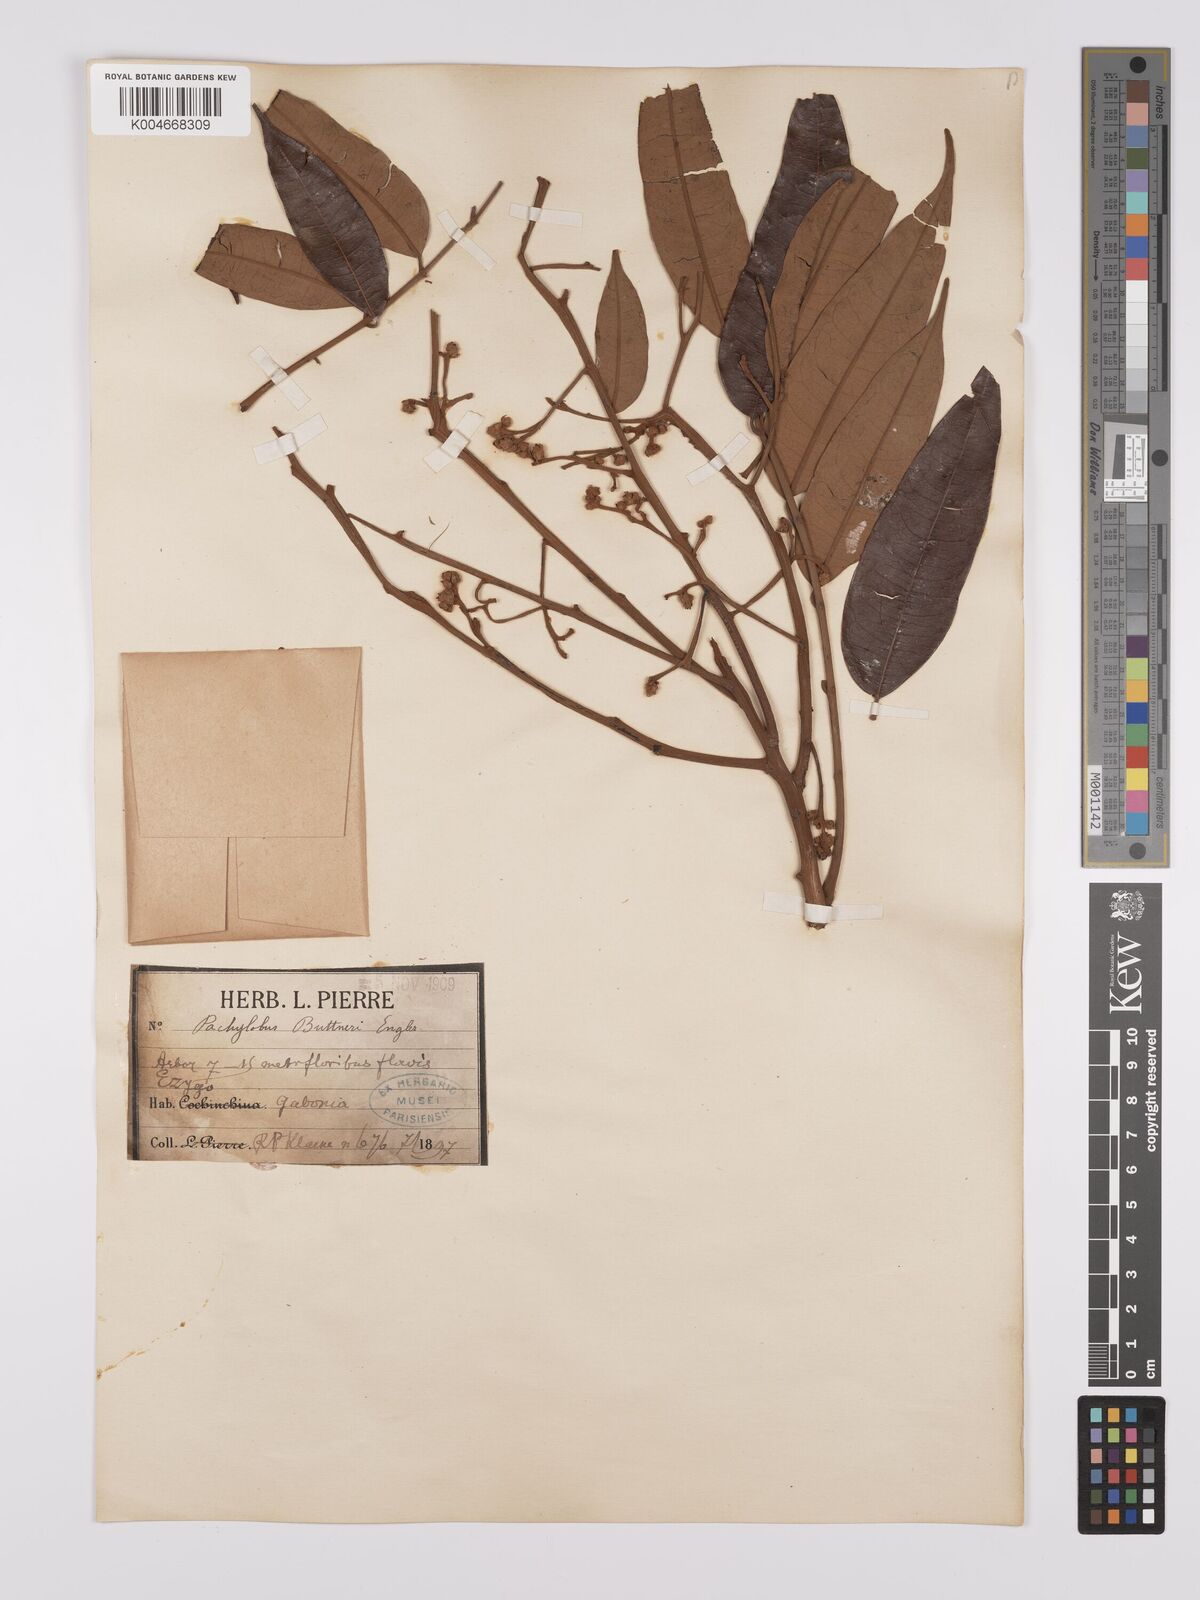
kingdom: Plantae
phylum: Tracheophyta
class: Magnoliopsida
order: Sapindales
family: Burseraceae
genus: Pachylobus
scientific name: Pachylobus buettneri
